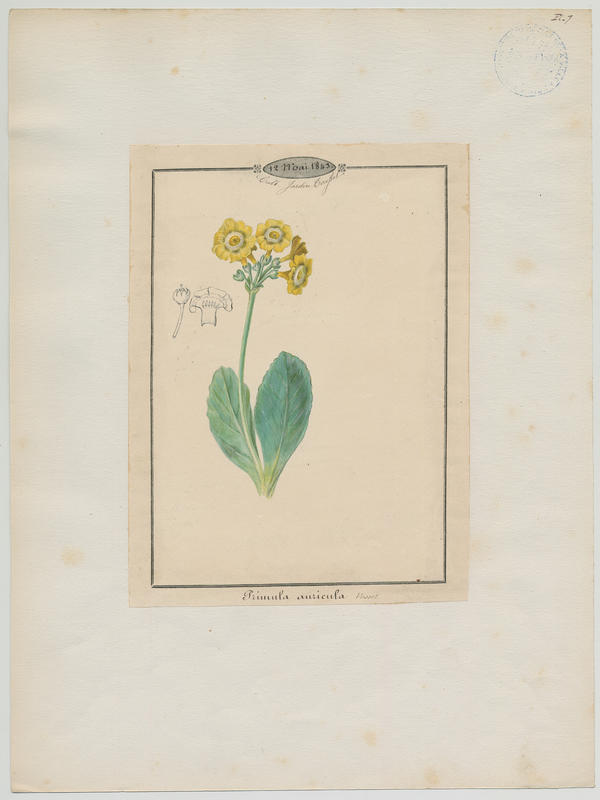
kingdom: Plantae
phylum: Tracheophyta
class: Magnoliopsida
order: Ericales
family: Primulaceae
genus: Primula
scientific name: Primula auricula
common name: Auricula
